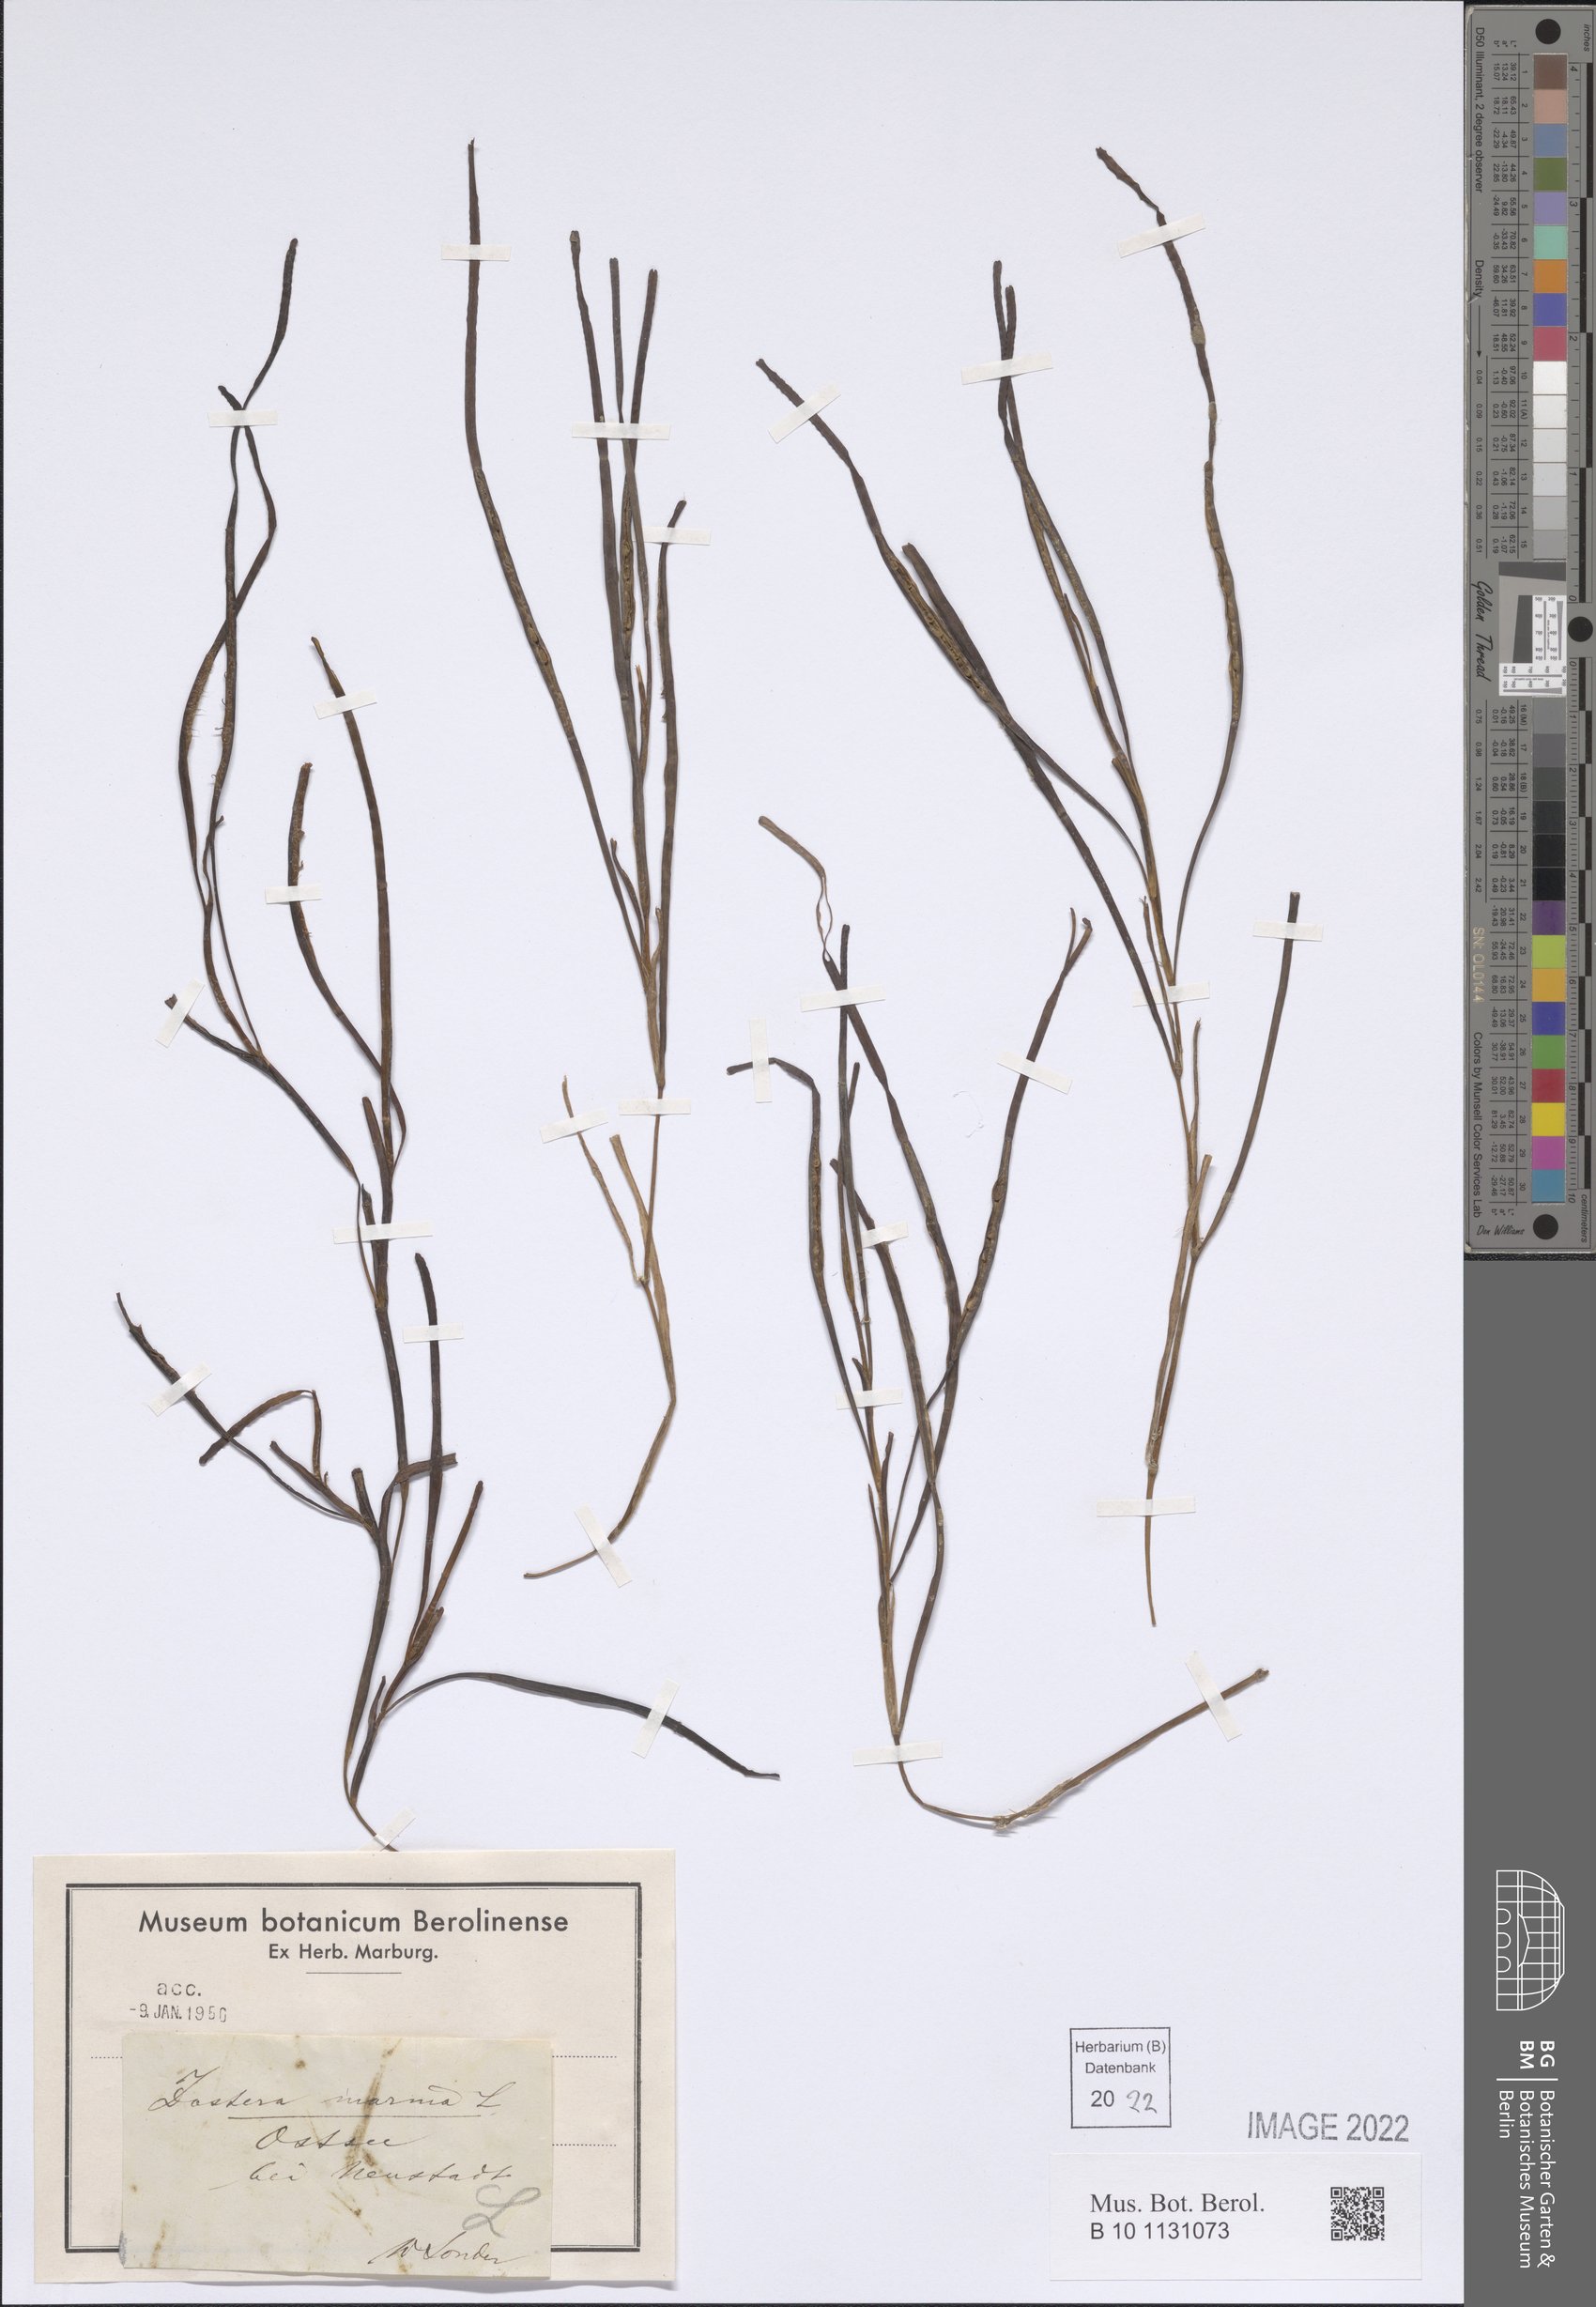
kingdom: Plantae
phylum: Tracheophyta
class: Liliopsida
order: Alismatales
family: Zosteraceae
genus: Zostera
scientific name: Zostera marina
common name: Eelgrass
